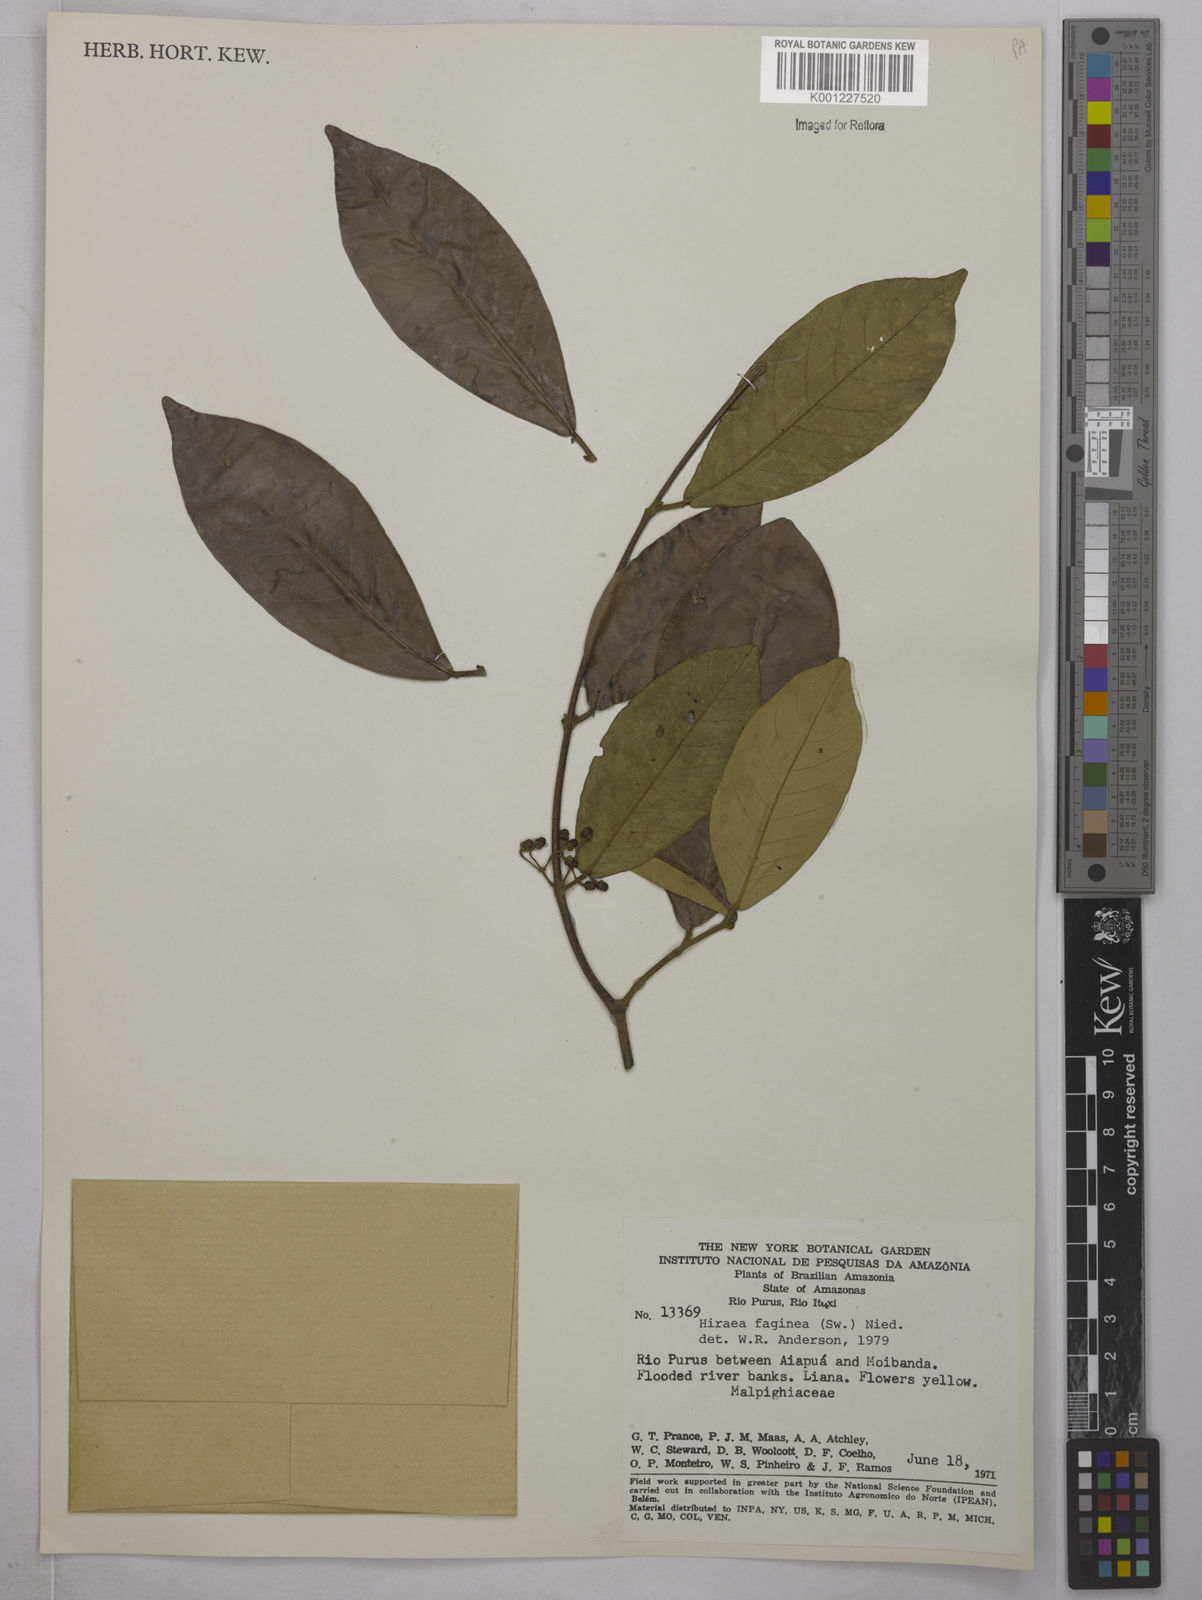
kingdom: Plantae
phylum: Tracheophyta
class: Magnoliopsida
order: Malpighiales
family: Malpighiaceae
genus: Hiraea
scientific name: Hiraea faginea
